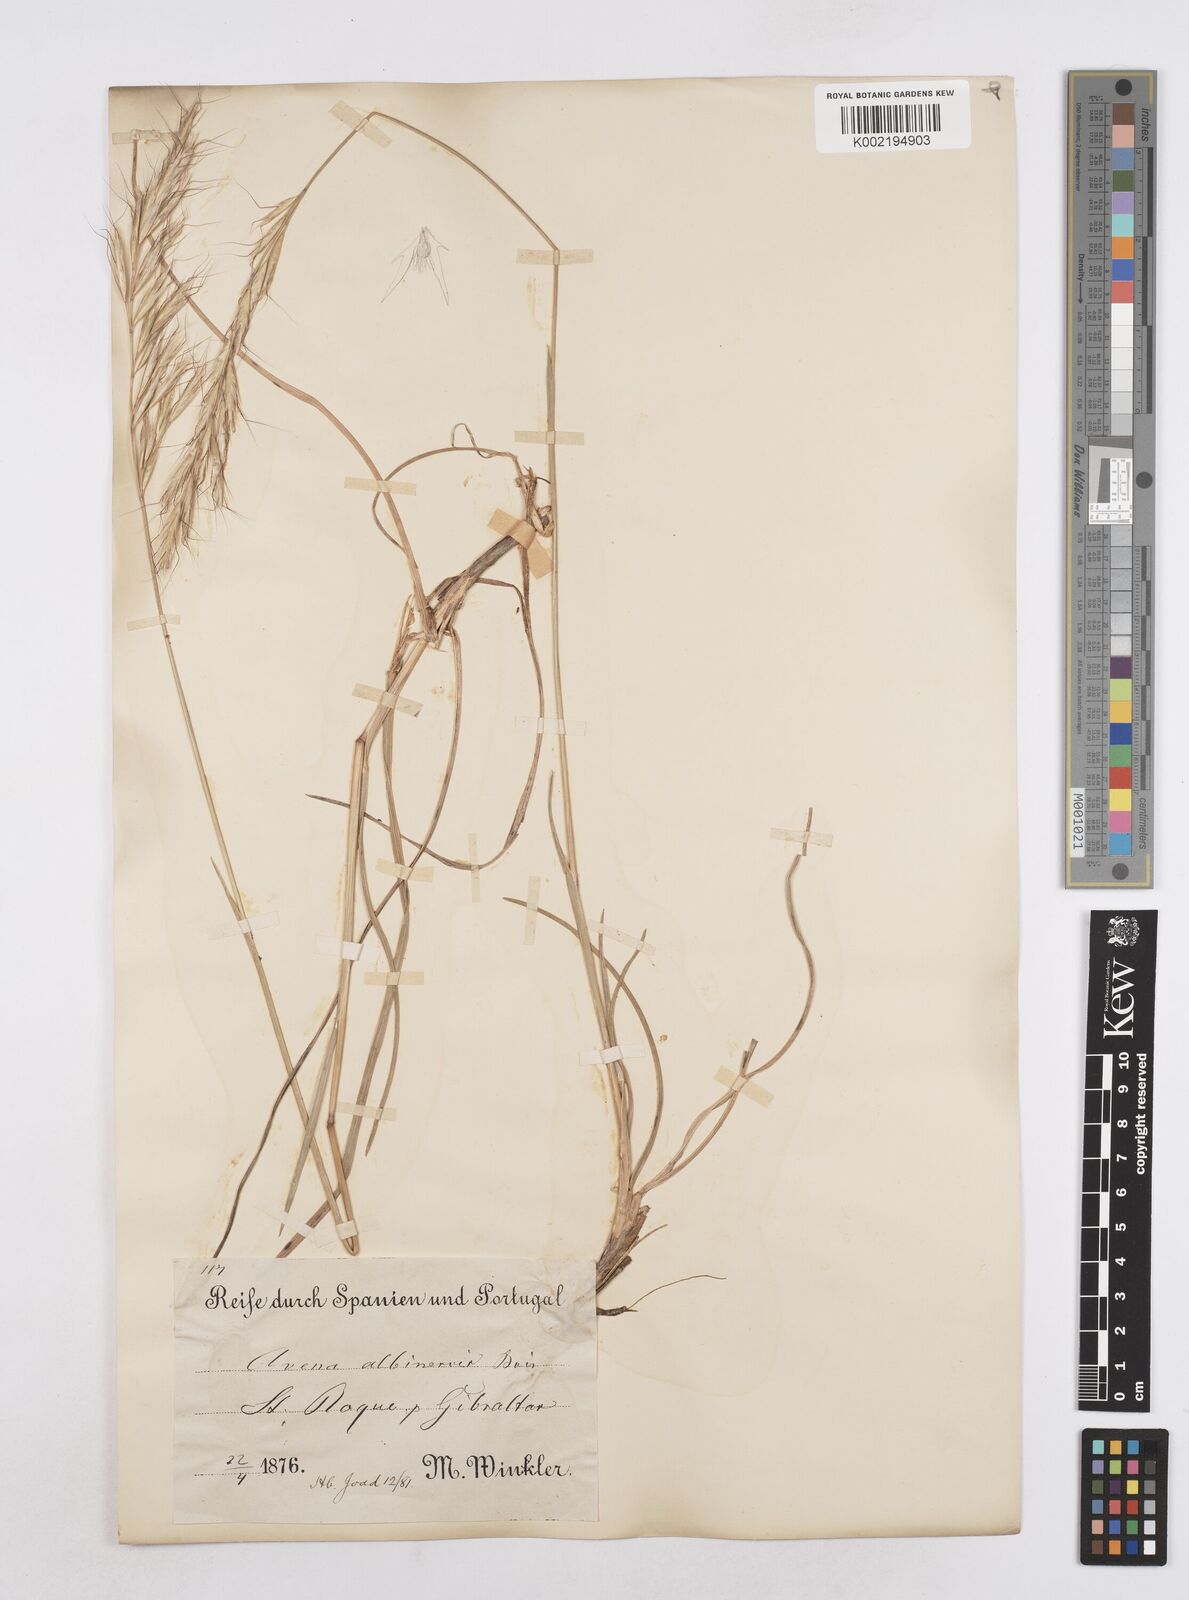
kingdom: Plantae
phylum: Tracheophyta
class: Liliopsida
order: Poales
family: Poaceae
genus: Helictotrichon
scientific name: Helictotrichon
